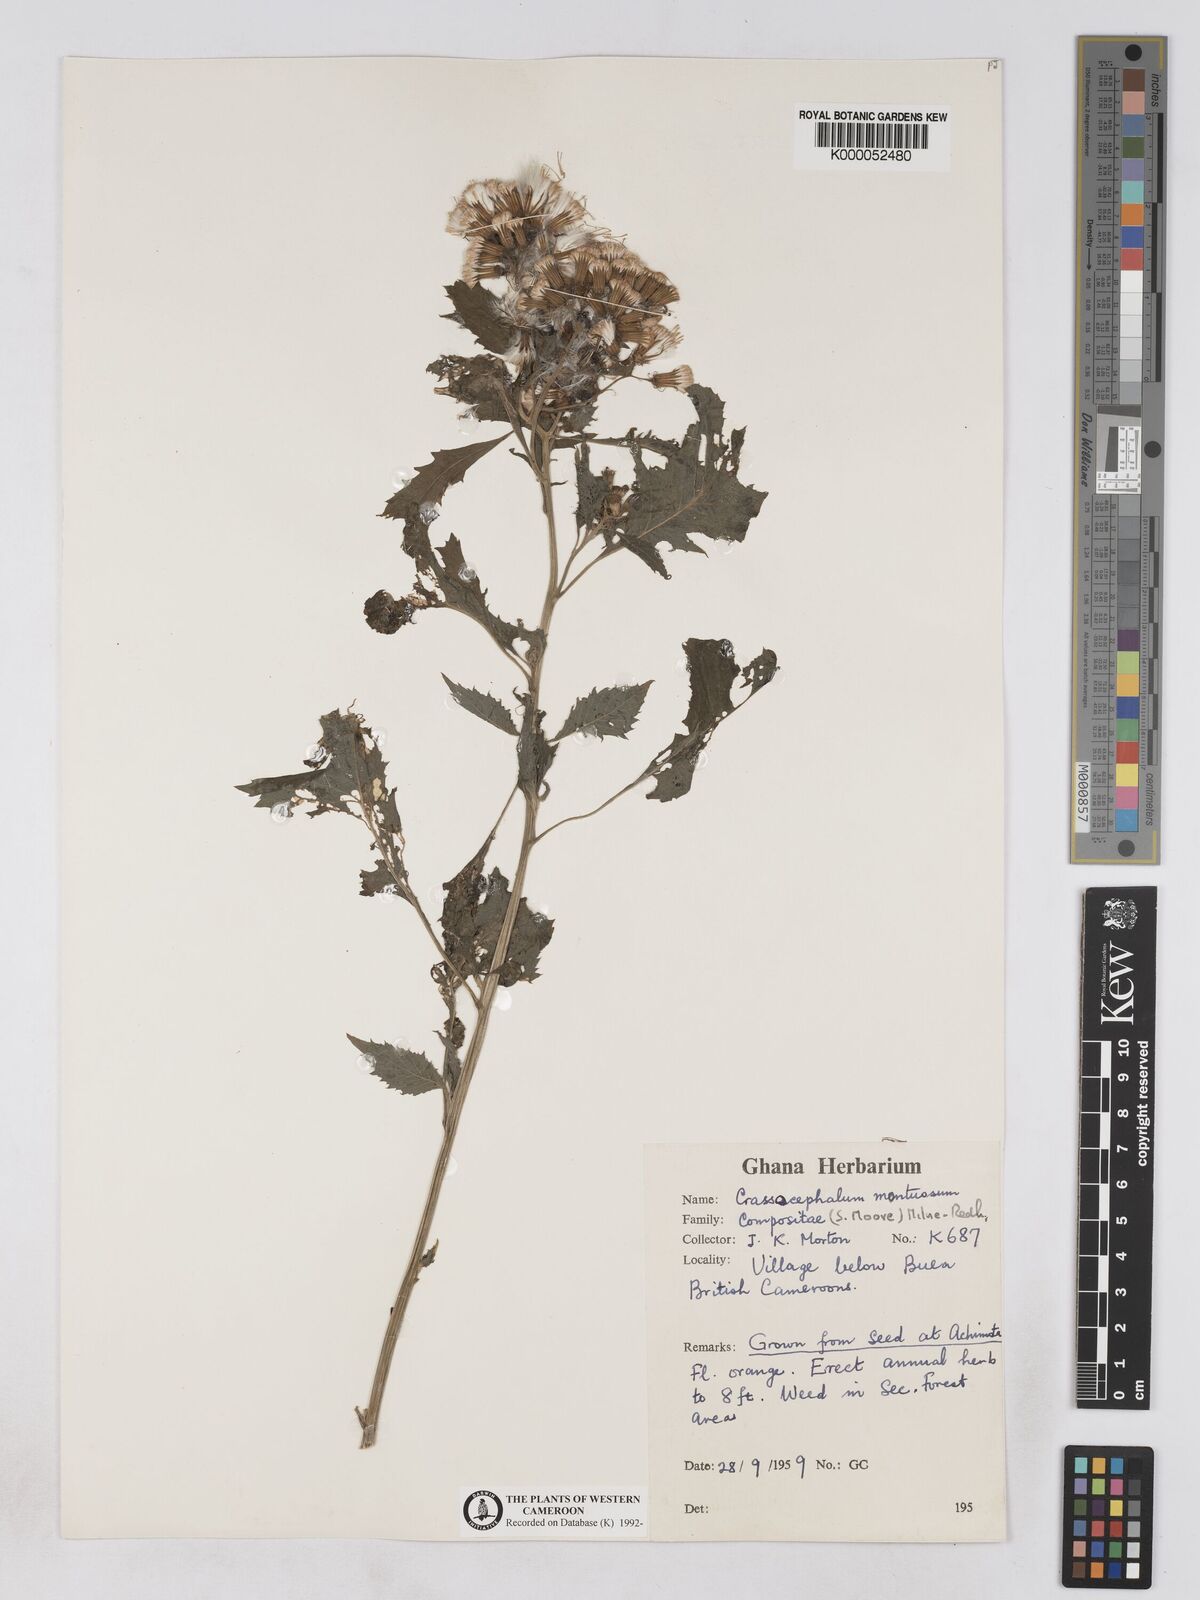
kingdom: Plantae
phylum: Tracheophyta
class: Magnoliopsida
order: Asterales
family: Asteraceae
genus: Crassocephalum
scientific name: Crassocephalum montuosum
